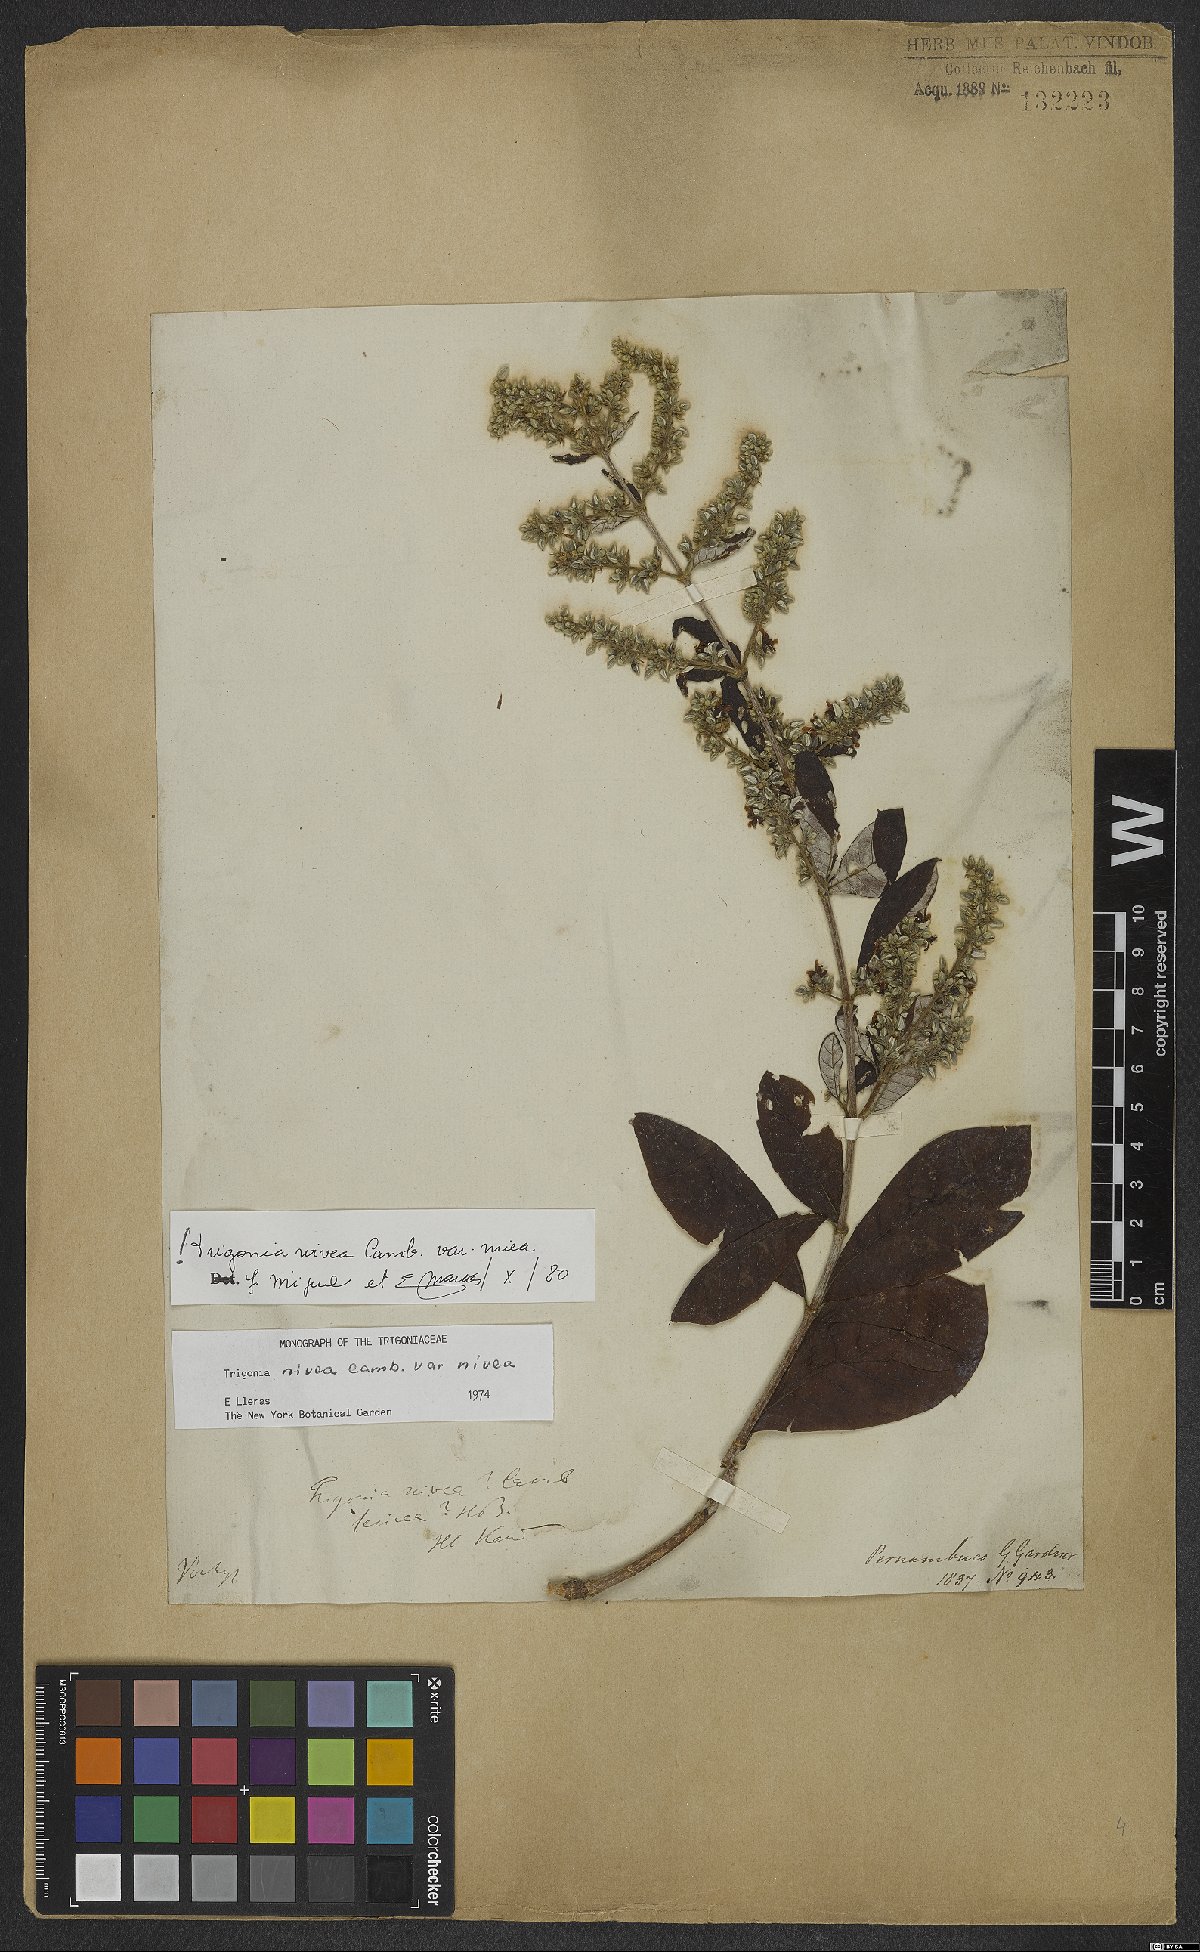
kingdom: Plantae
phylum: Tracheophyta
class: Magnoliopsida
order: Malpighiales
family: Trigoniaceae
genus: Trigonia
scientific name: Trigonia nivea
